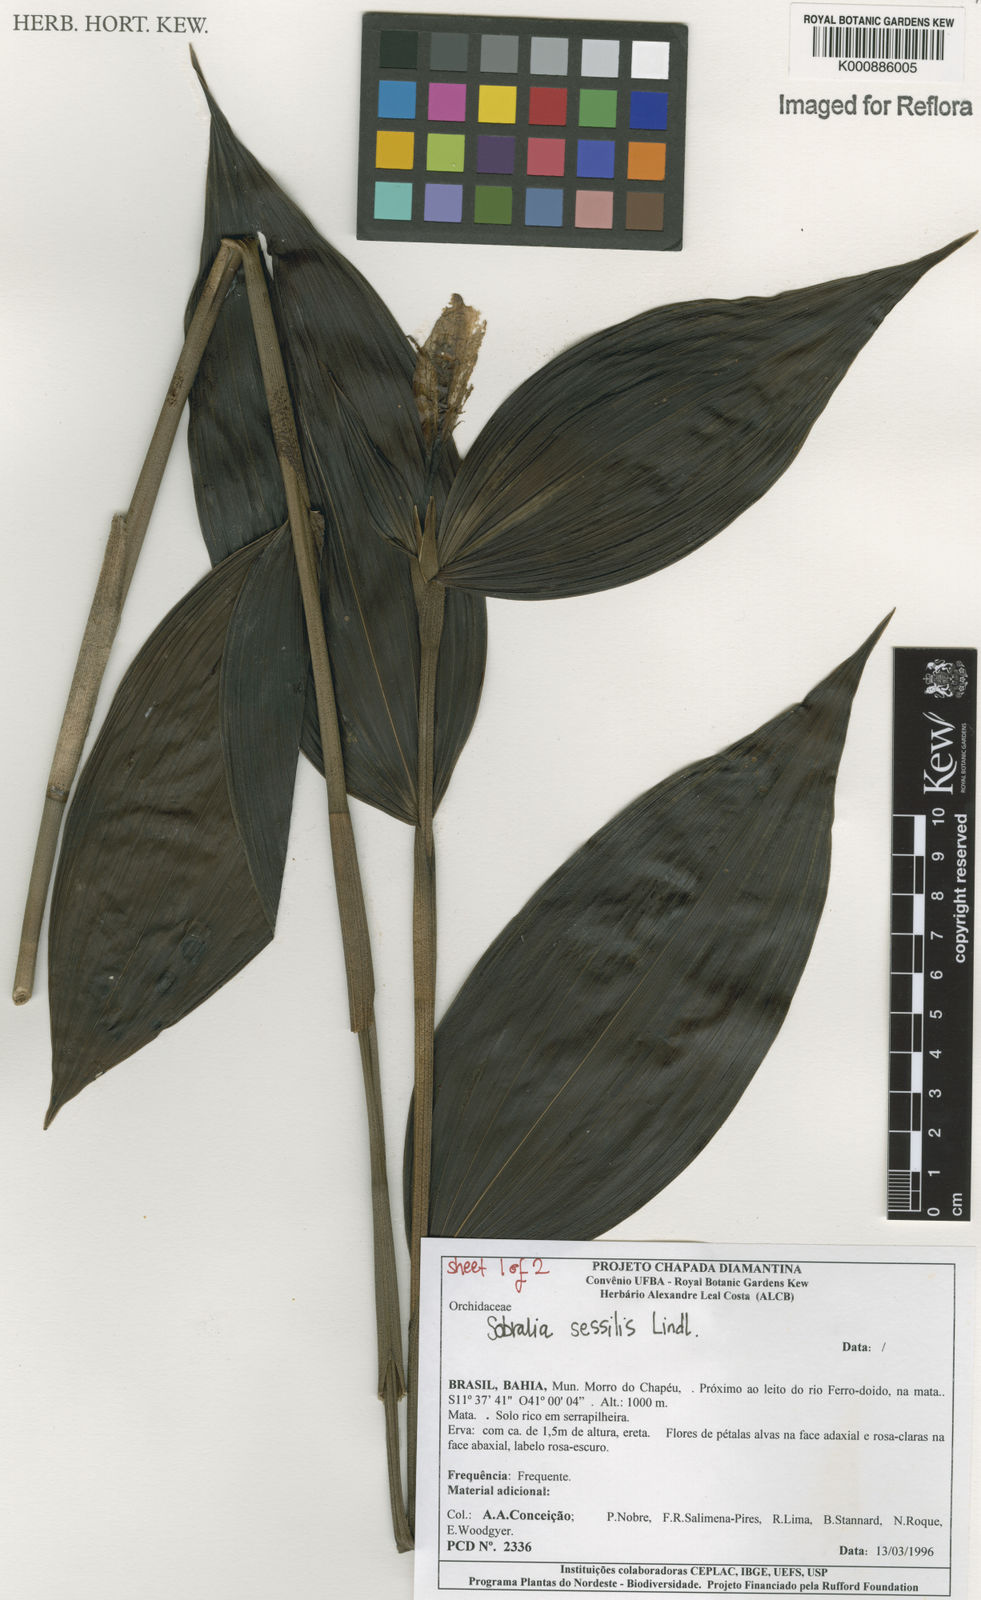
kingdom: Plantae
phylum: Tracheophyta
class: Liliopsida
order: Asparagales
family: Orchidaceae
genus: Sobralia
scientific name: Sobralia sessilis
